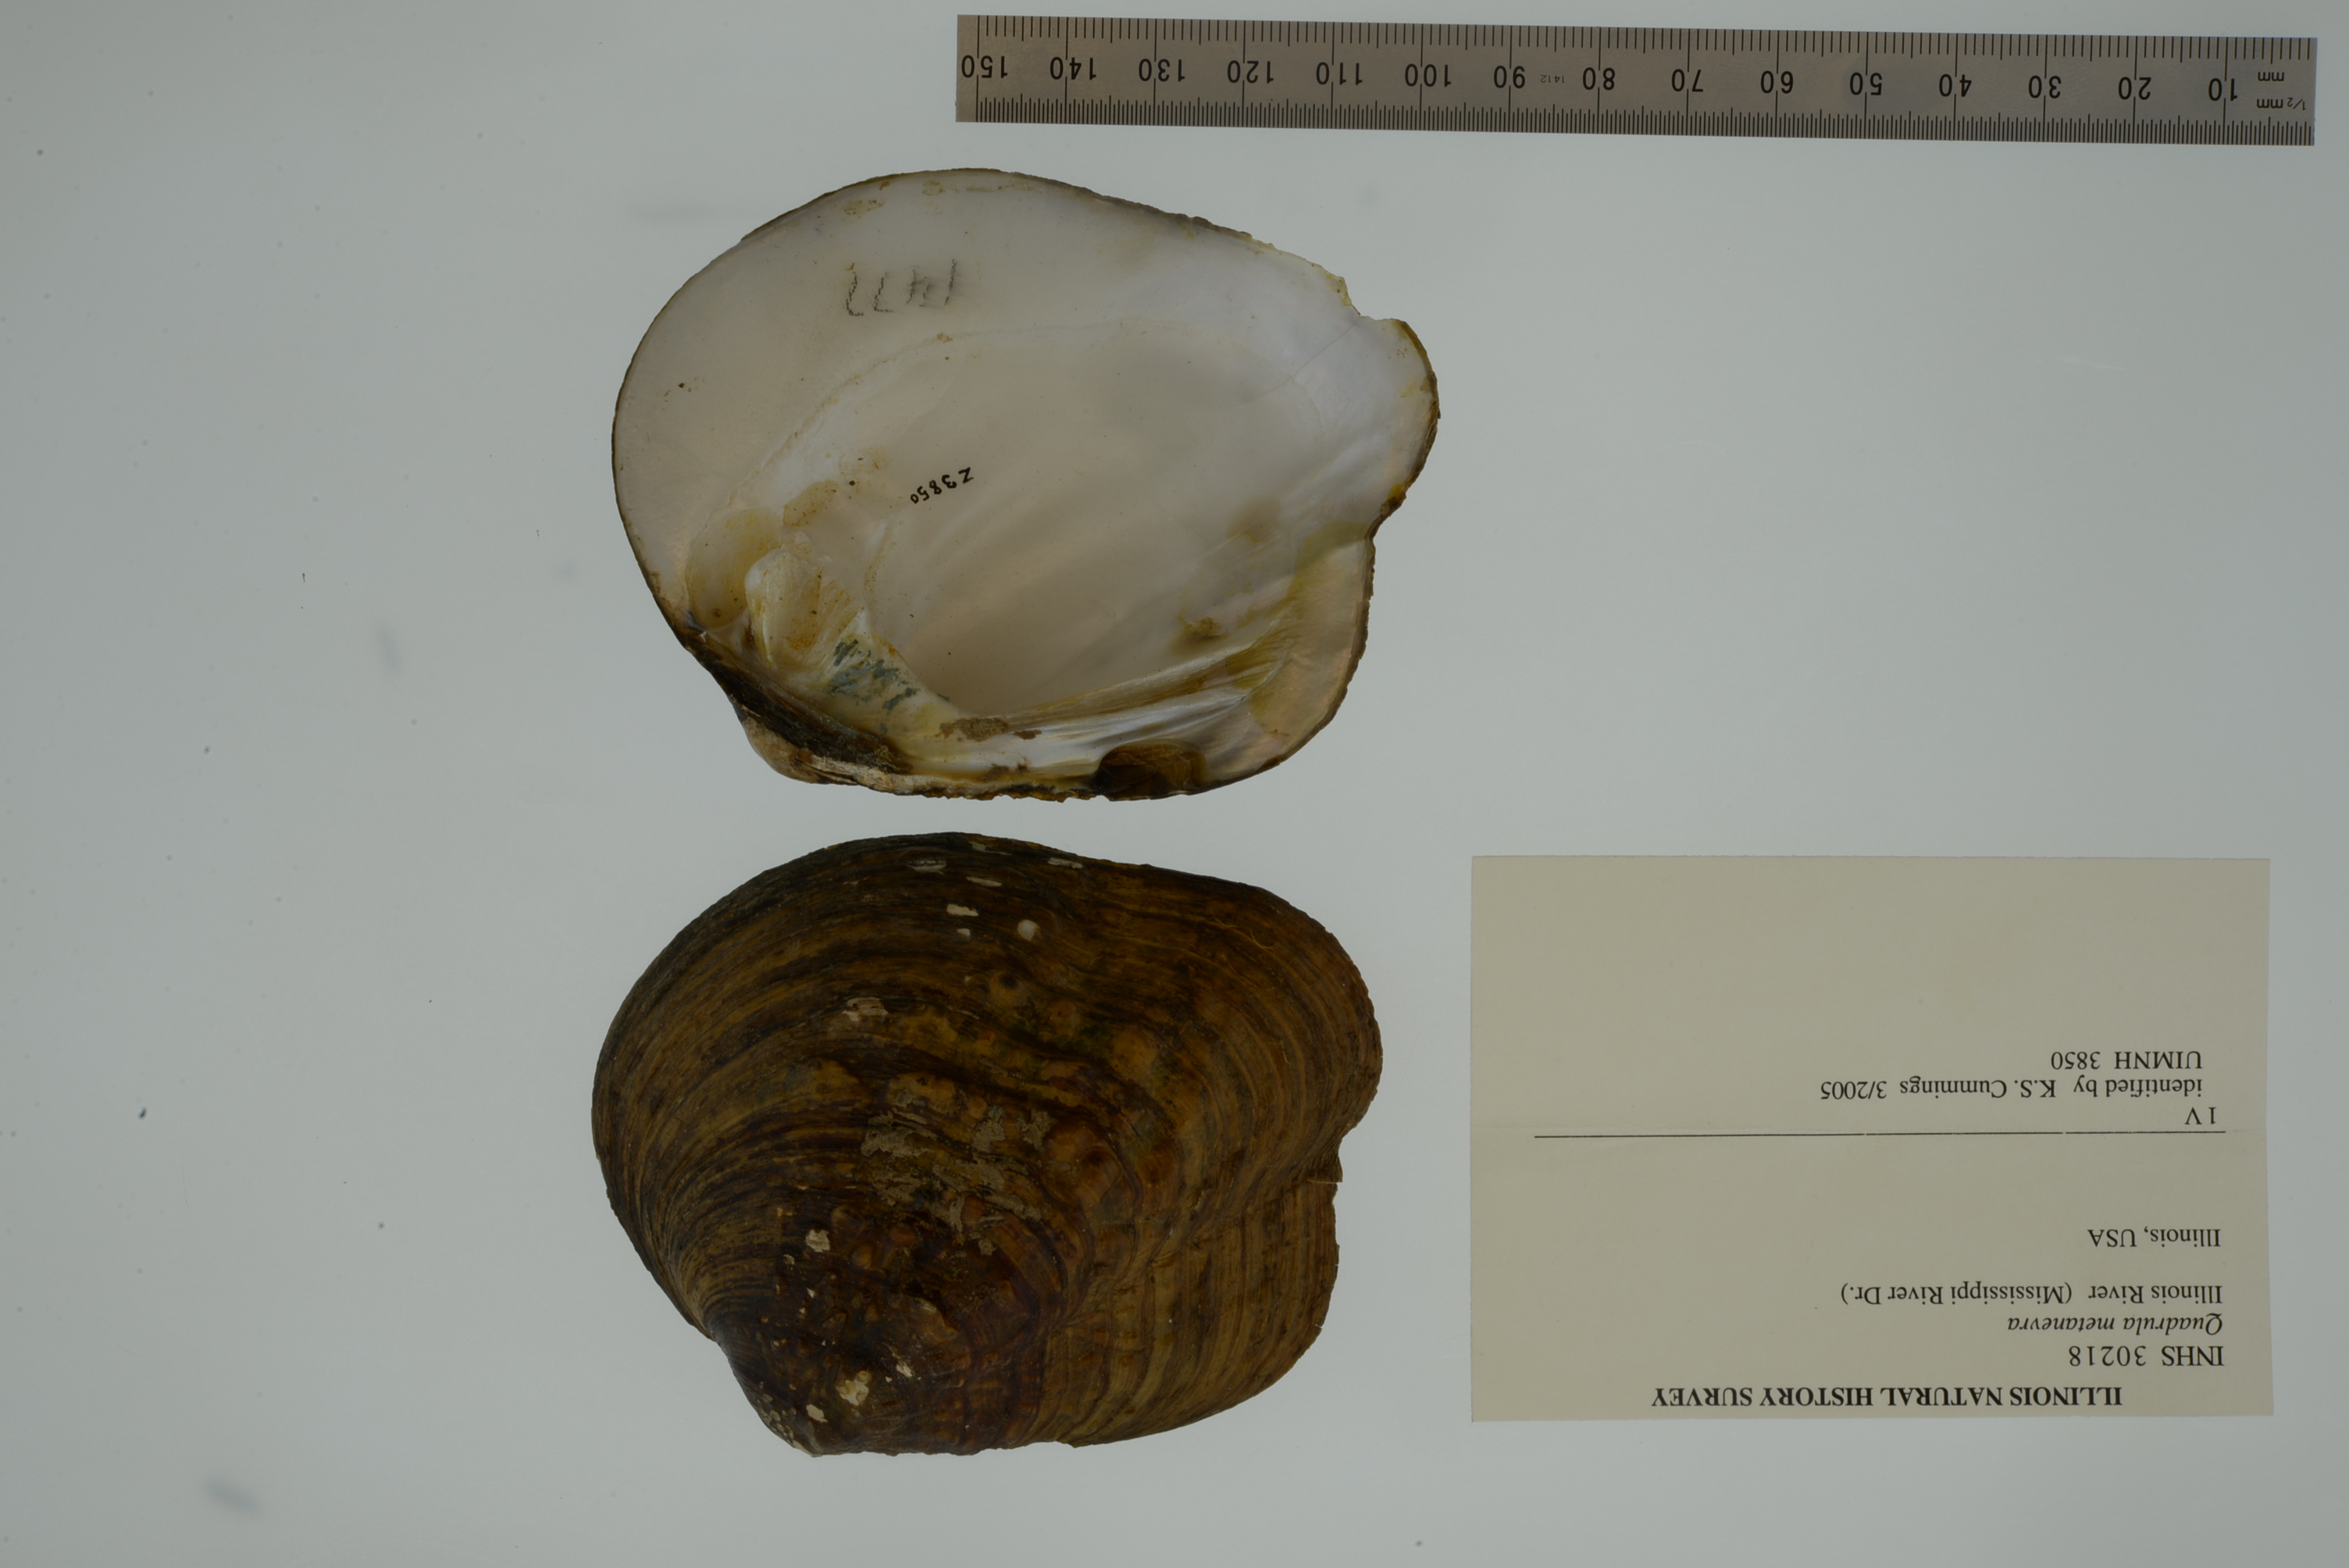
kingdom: Animalia
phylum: Mollusca
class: Bivalvia
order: Unionida
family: Unionidae
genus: Theliderma
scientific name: Theliderma metanevra
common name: Monkeyface
